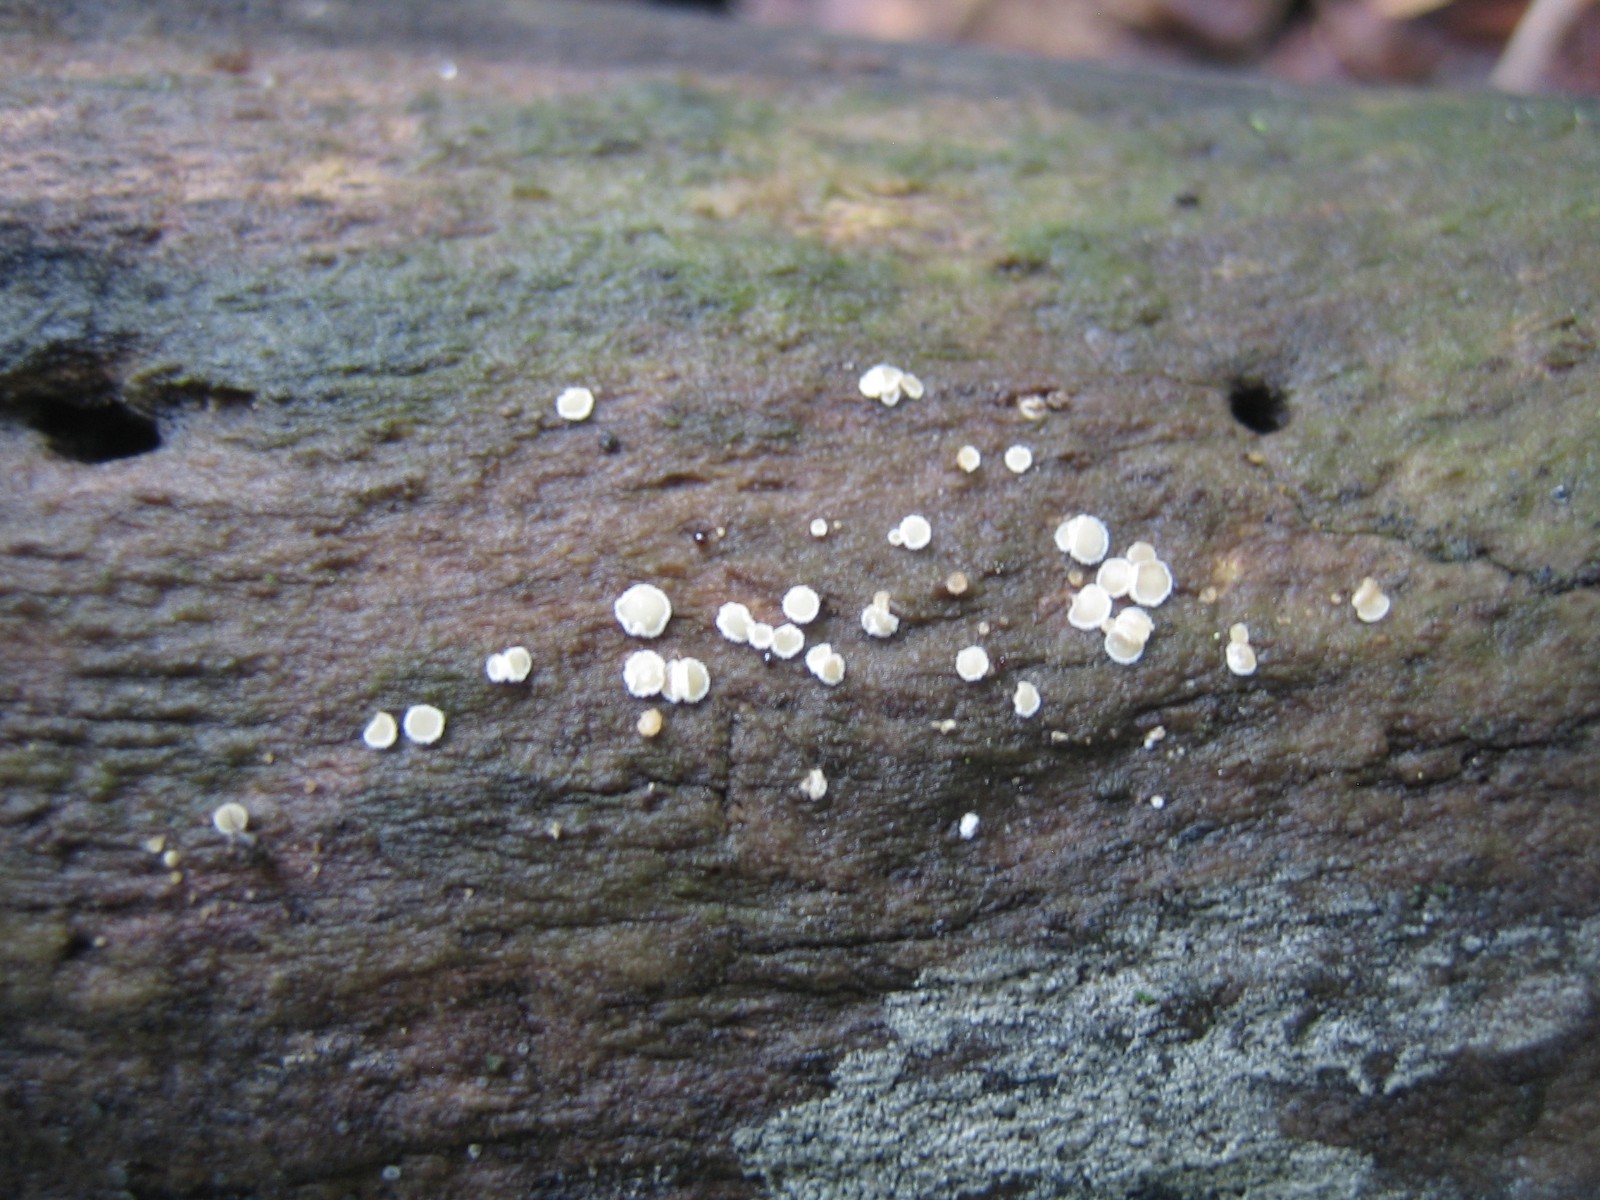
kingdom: Fungi
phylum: Ascomycota
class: Leotiomycetes
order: Helotiales
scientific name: Helotiales
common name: stilkskiveordenen
